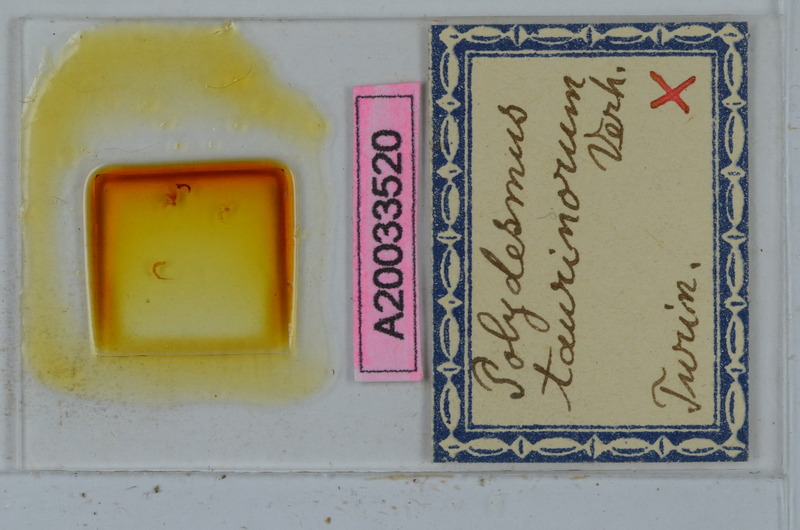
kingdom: Animalia
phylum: Arthropoda
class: Diplopoda
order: Polydesmida
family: Polydesmidae
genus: Propolydesmus
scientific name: Propolydesmus testaceus
